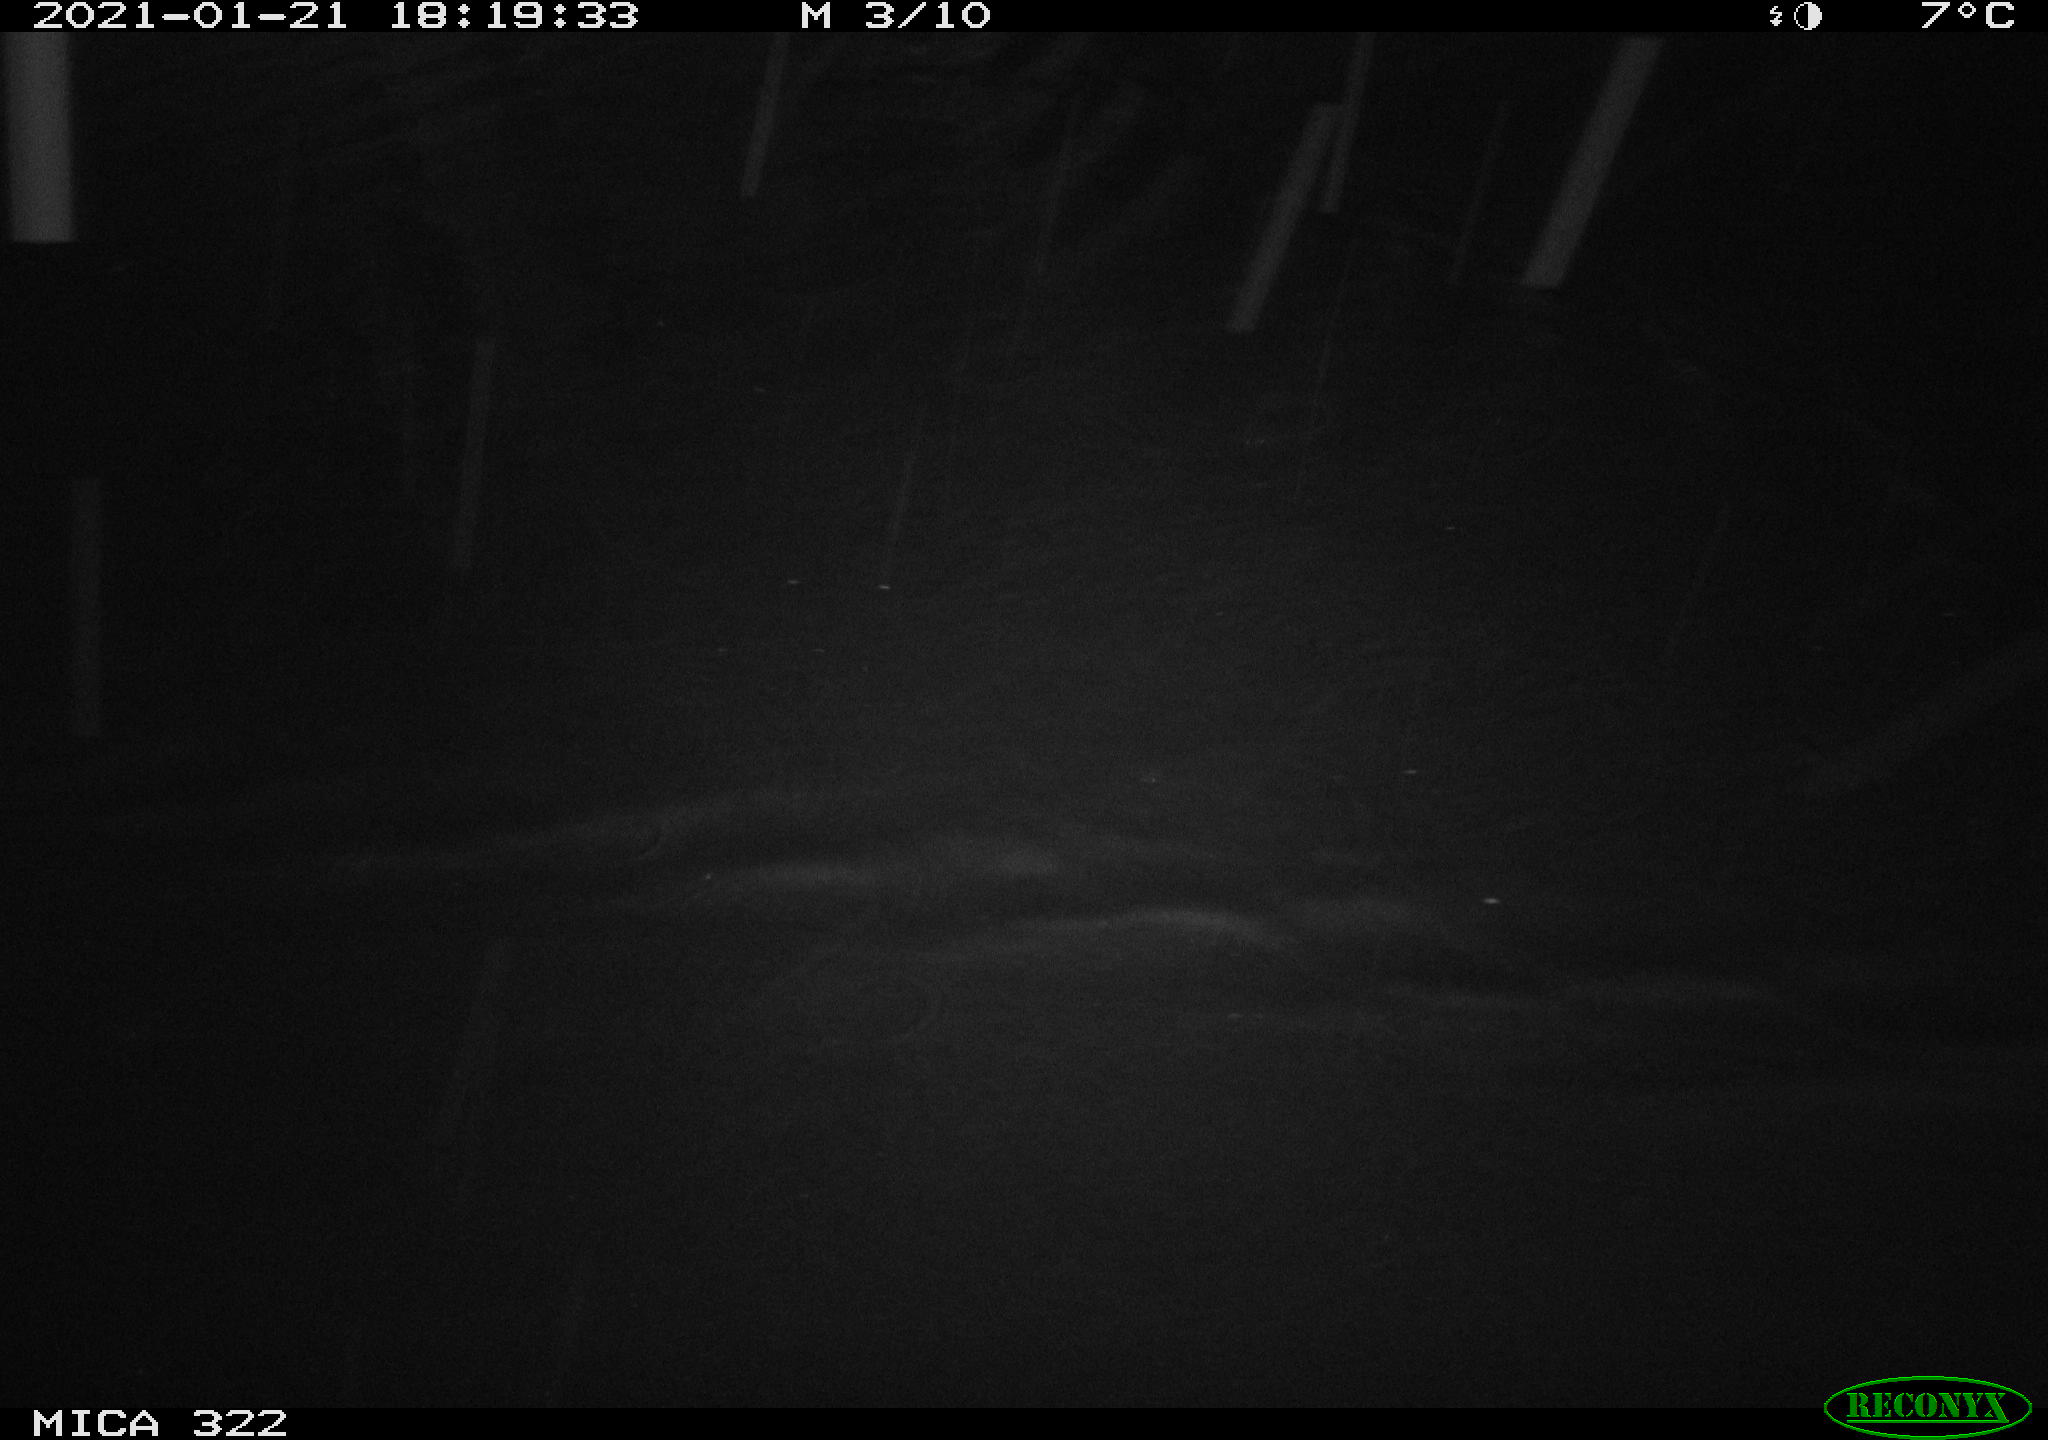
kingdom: Animalia
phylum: Chordata
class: Mammalia
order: Rodentia
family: Muridae
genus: Rattus
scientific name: Rattus norvegicus
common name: Brown rat
